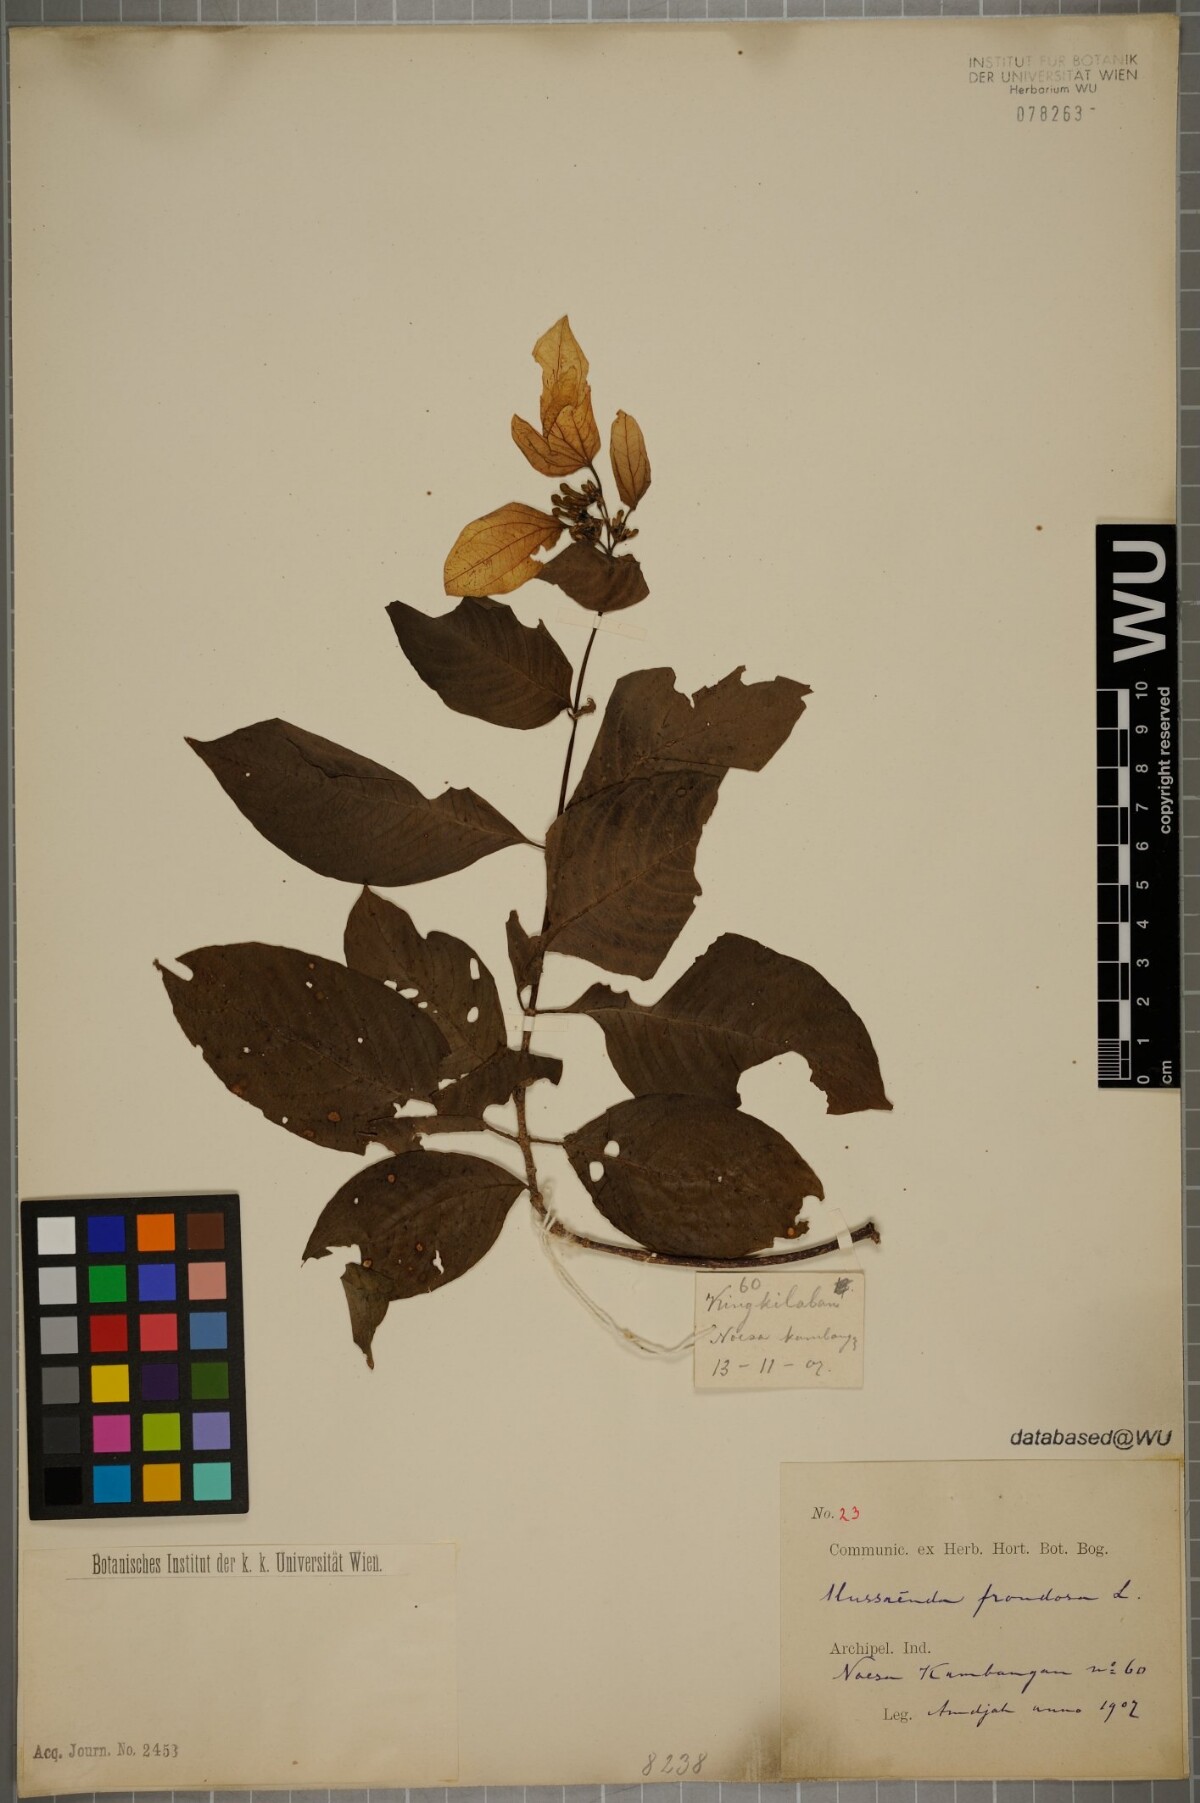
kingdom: Plantae
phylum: Tracheophyta
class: Magnoliopsida
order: Gentianales
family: Rubiaceae
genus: Mussaenda
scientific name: Mussaenda frondosa
